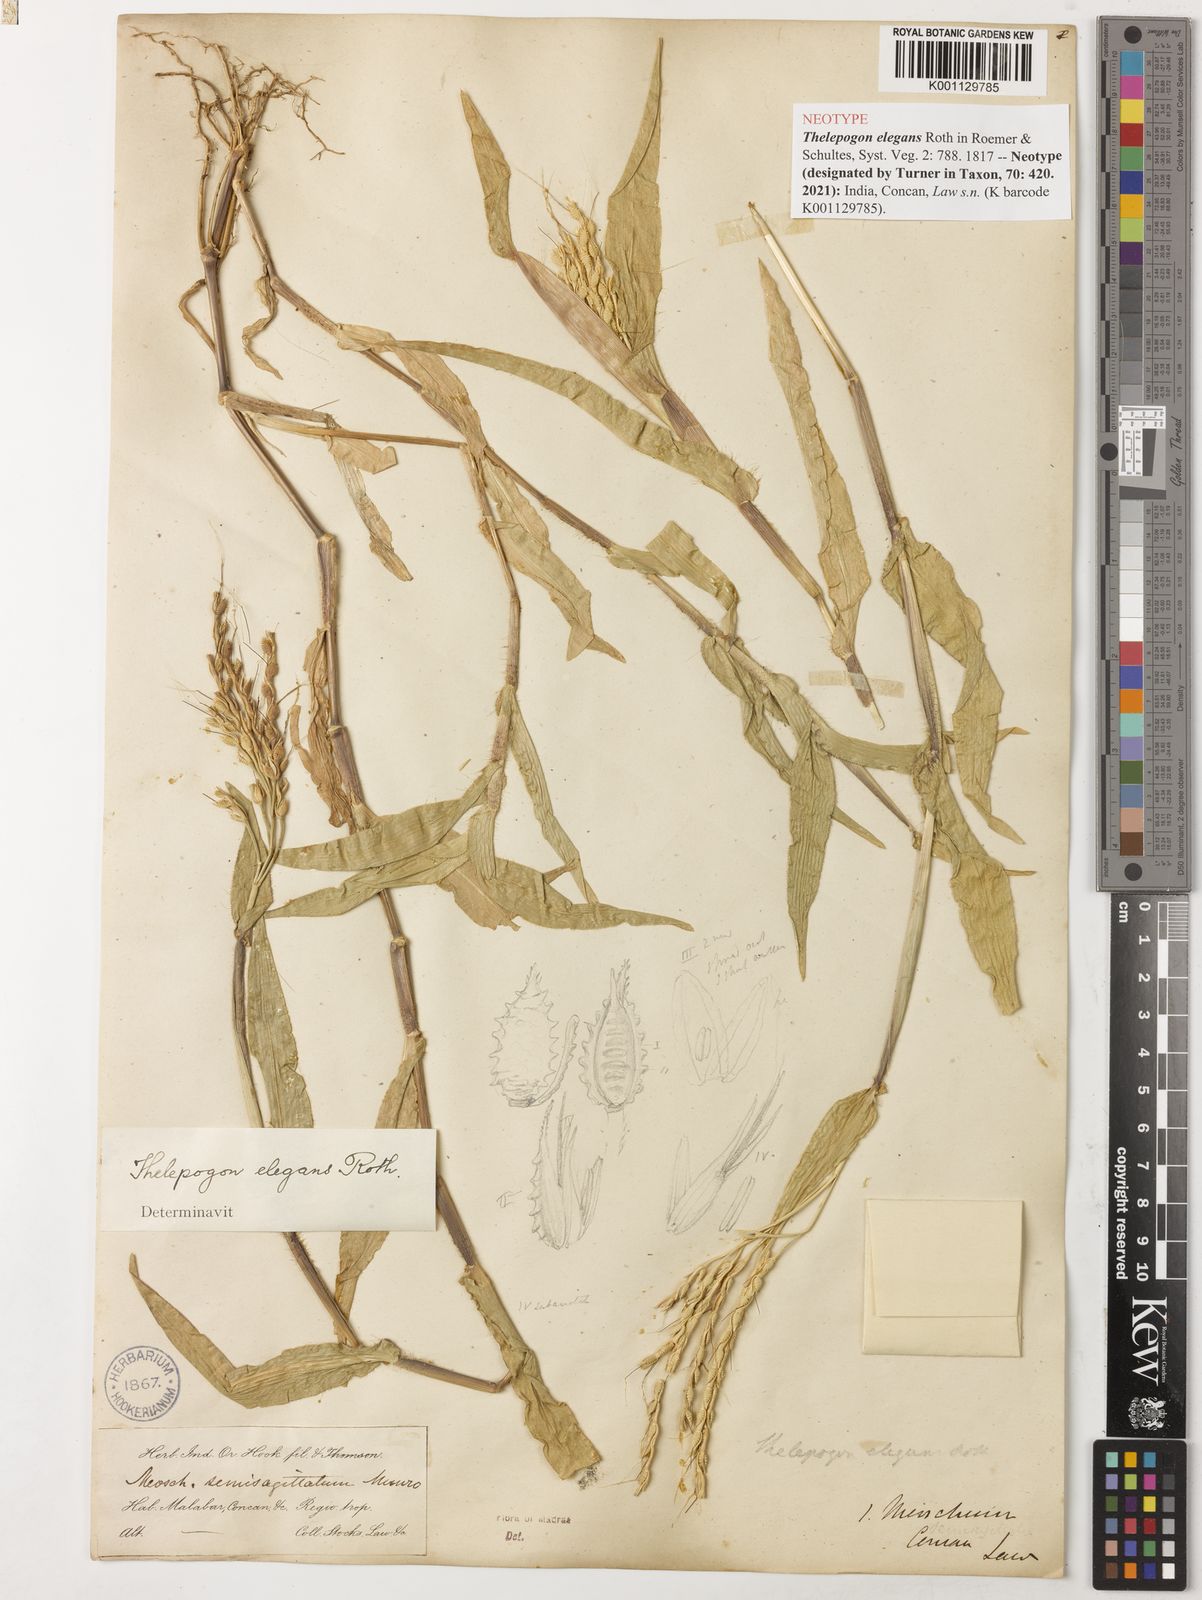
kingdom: Plantae
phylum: Tracheophyta
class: Liliopsida
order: Poales
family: Poaceae
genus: Thelepogon
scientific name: Thelepogon elegans
